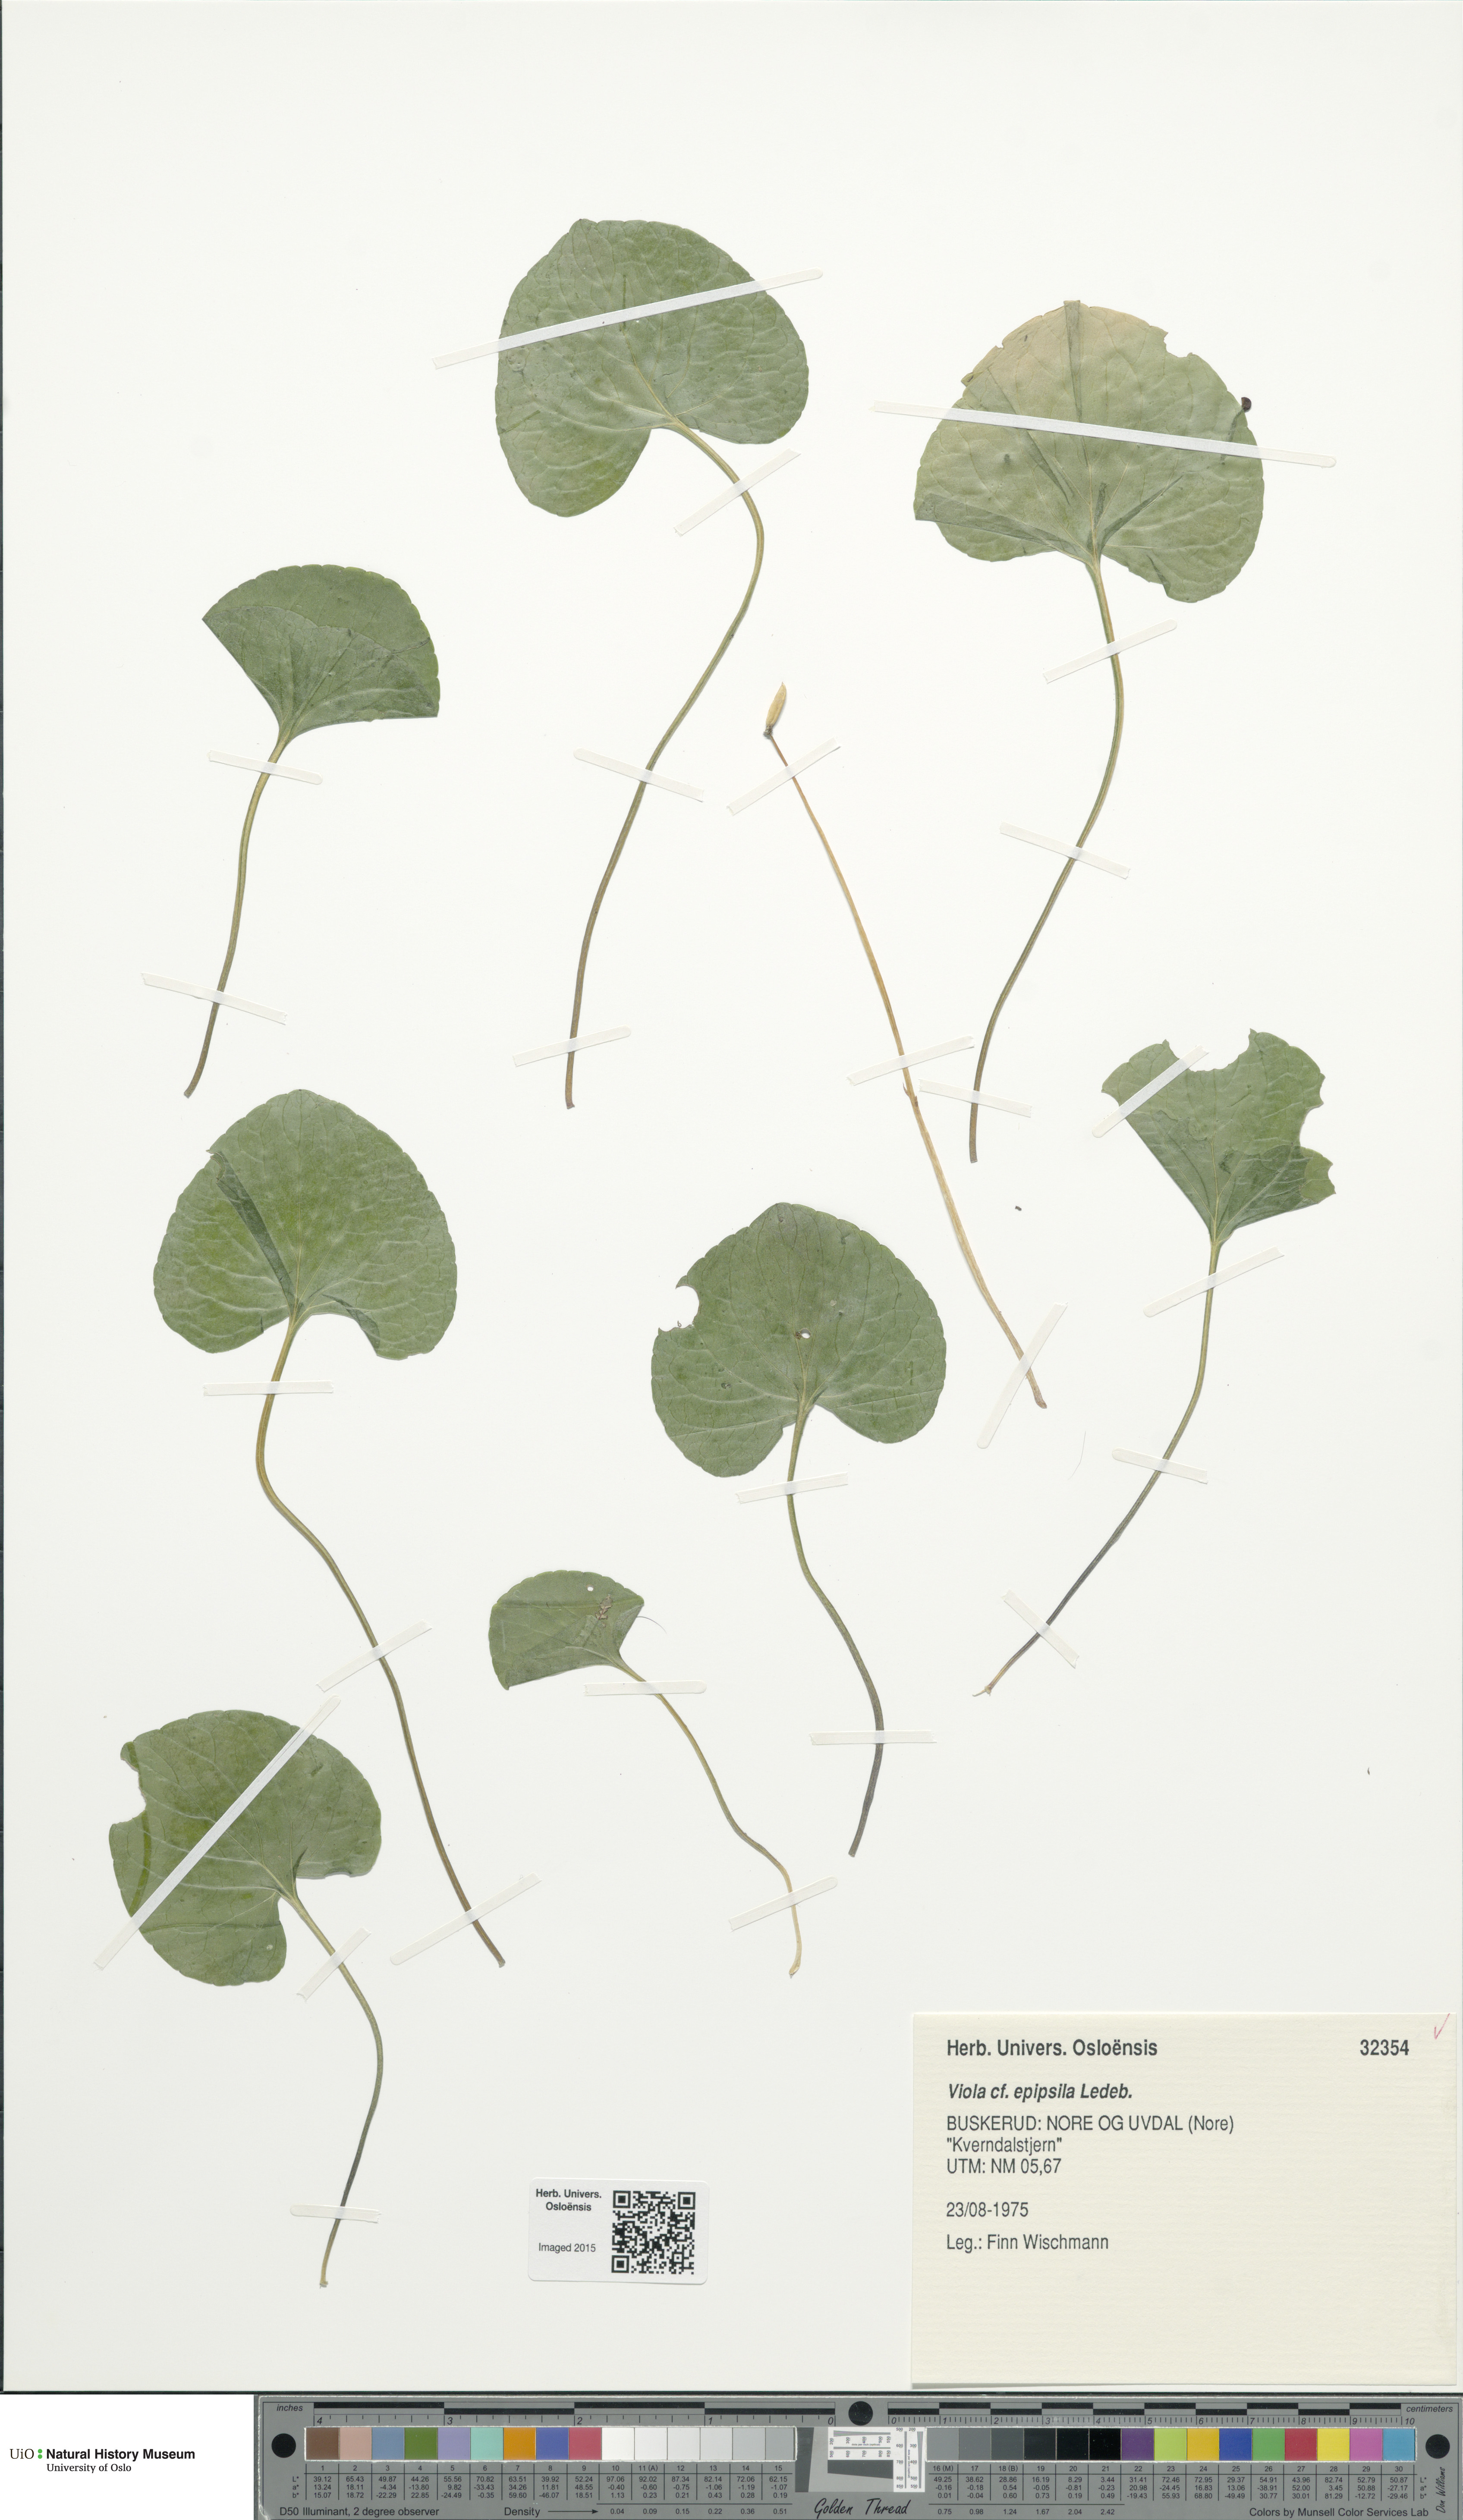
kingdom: Plantae
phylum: Tracheophyta
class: Magnoliopsida
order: Malpighiales
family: Violaceae
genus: Viola
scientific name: Viola epipsila
